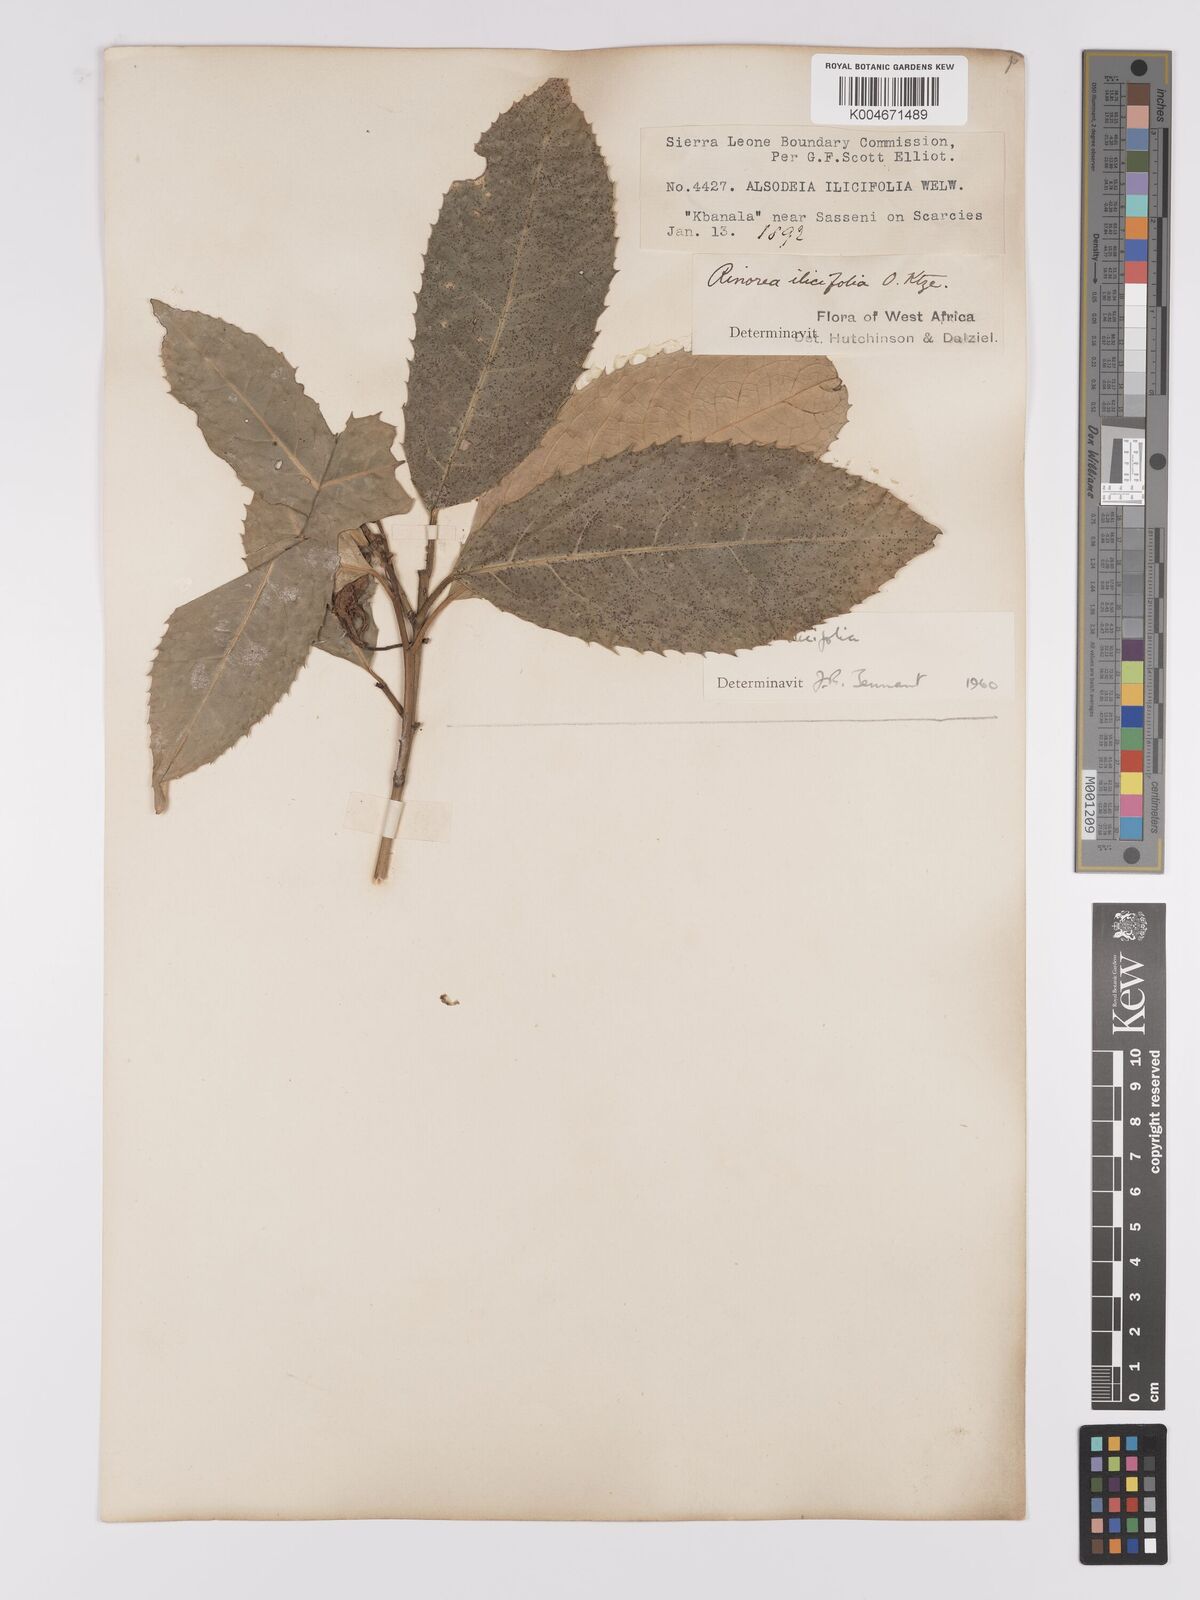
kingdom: Plantae
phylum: Tracheophyta
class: Magnoliopsida
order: Malpighiales
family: Violaceae
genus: Rinorea
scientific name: Rinorea ilicifolia
